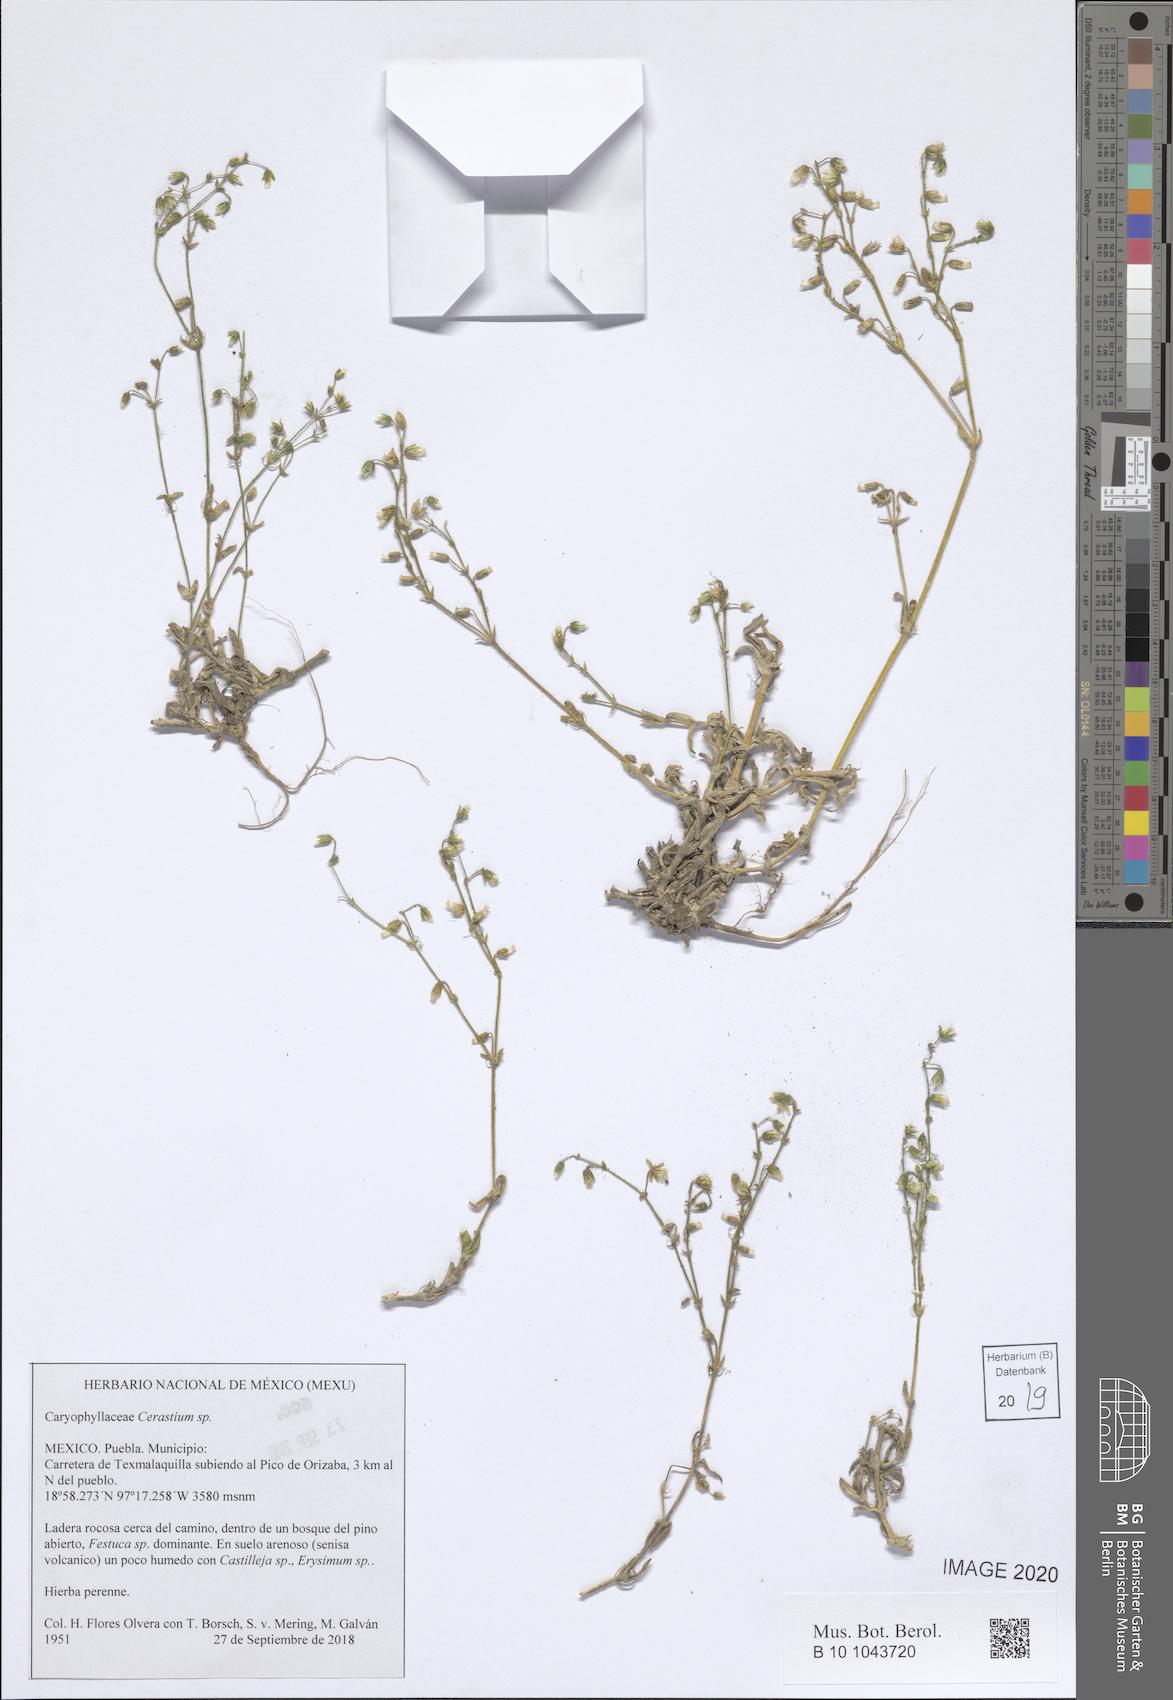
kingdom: Plantae
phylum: Tracheophyta
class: Magnoliopsida
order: Caryophyllales
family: Caryophyllaceae
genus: Cerastium
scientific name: Cerastium
